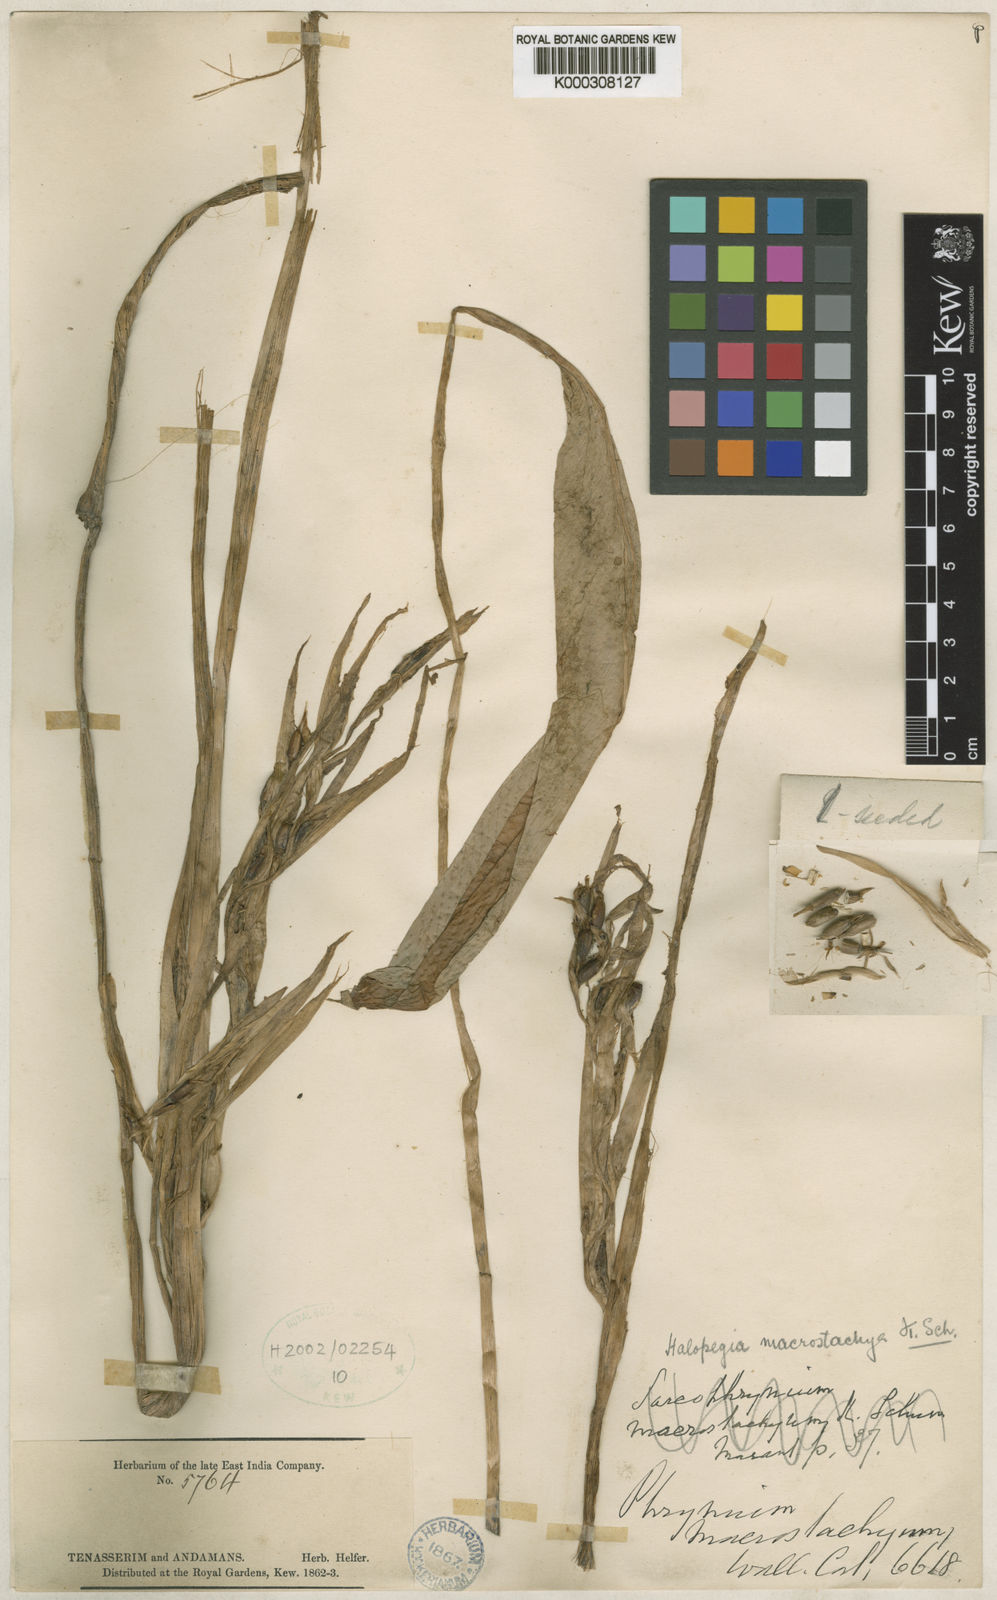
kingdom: Plantae
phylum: Tracheophyta
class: Liliopsida
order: Zingiberales
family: Marantaceae
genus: Halopegia
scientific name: Halopegia blumei
